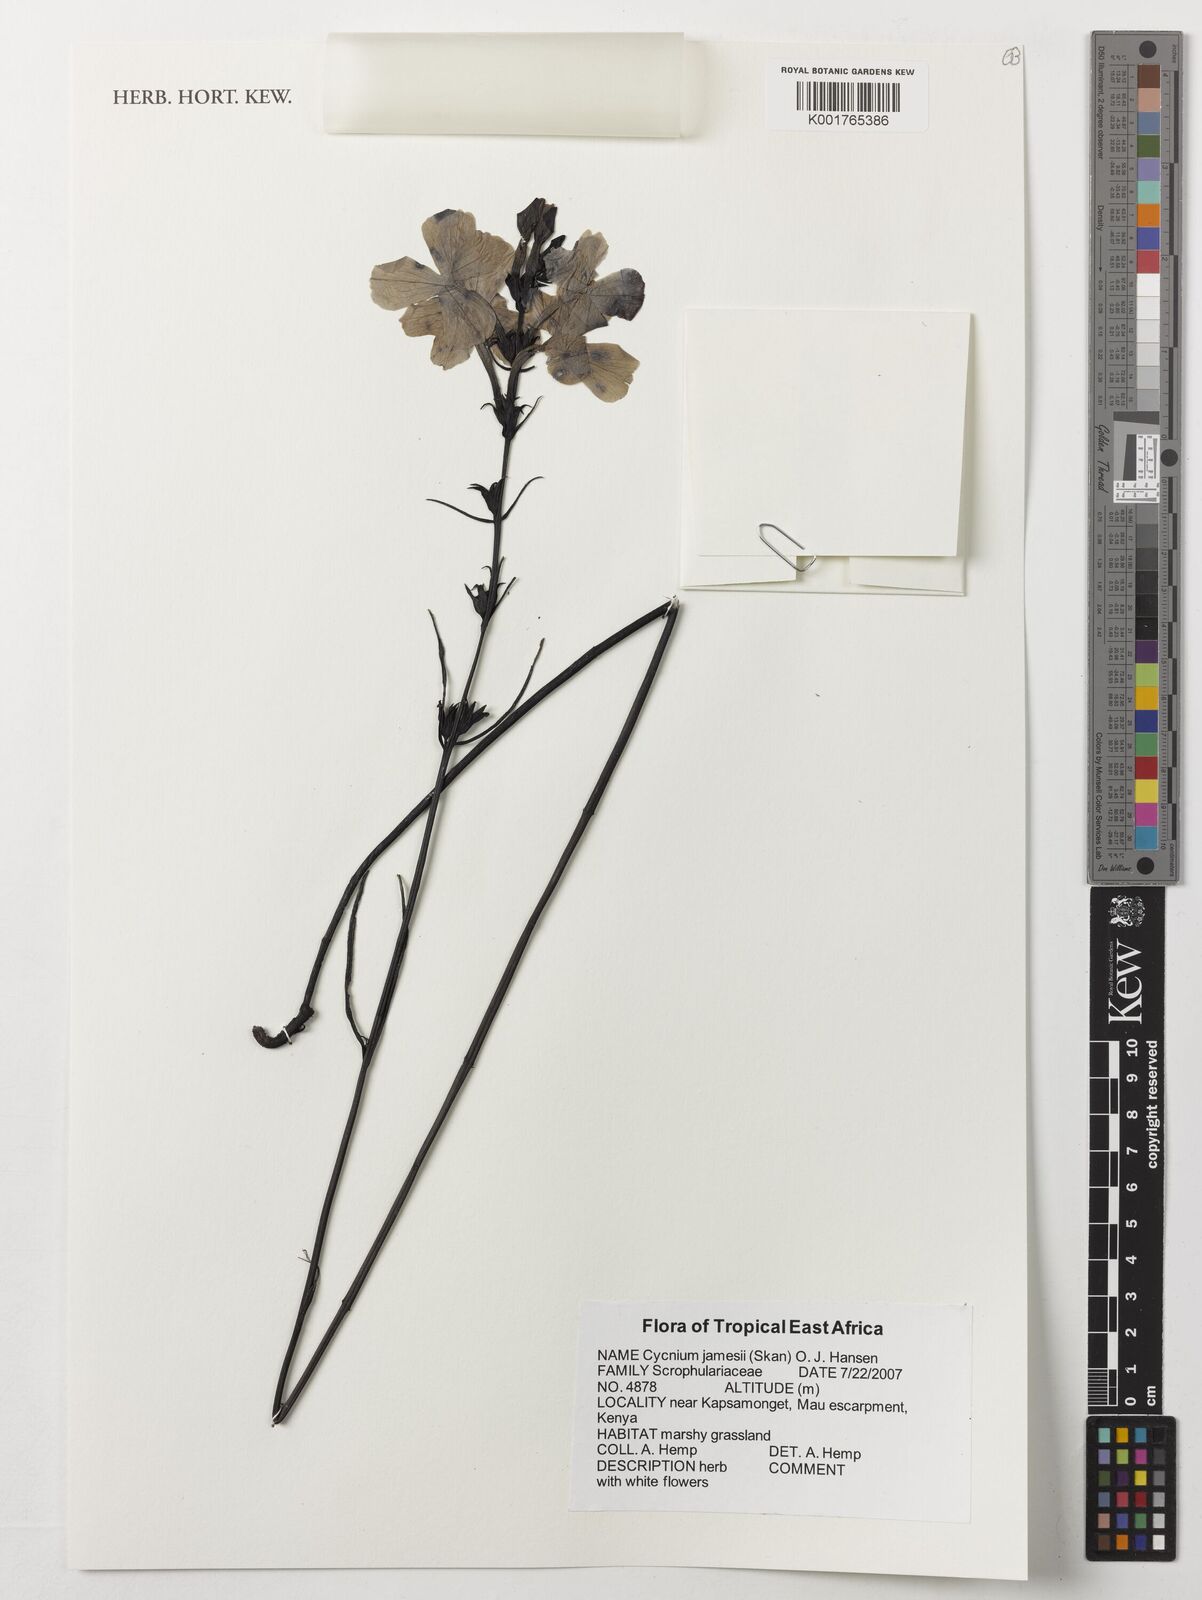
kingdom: Plantae
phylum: Tracheophyta
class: Magnoliopsida
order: Lamiales
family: Orobanchaceae
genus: Cycnium
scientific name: Cycnium jamesii
